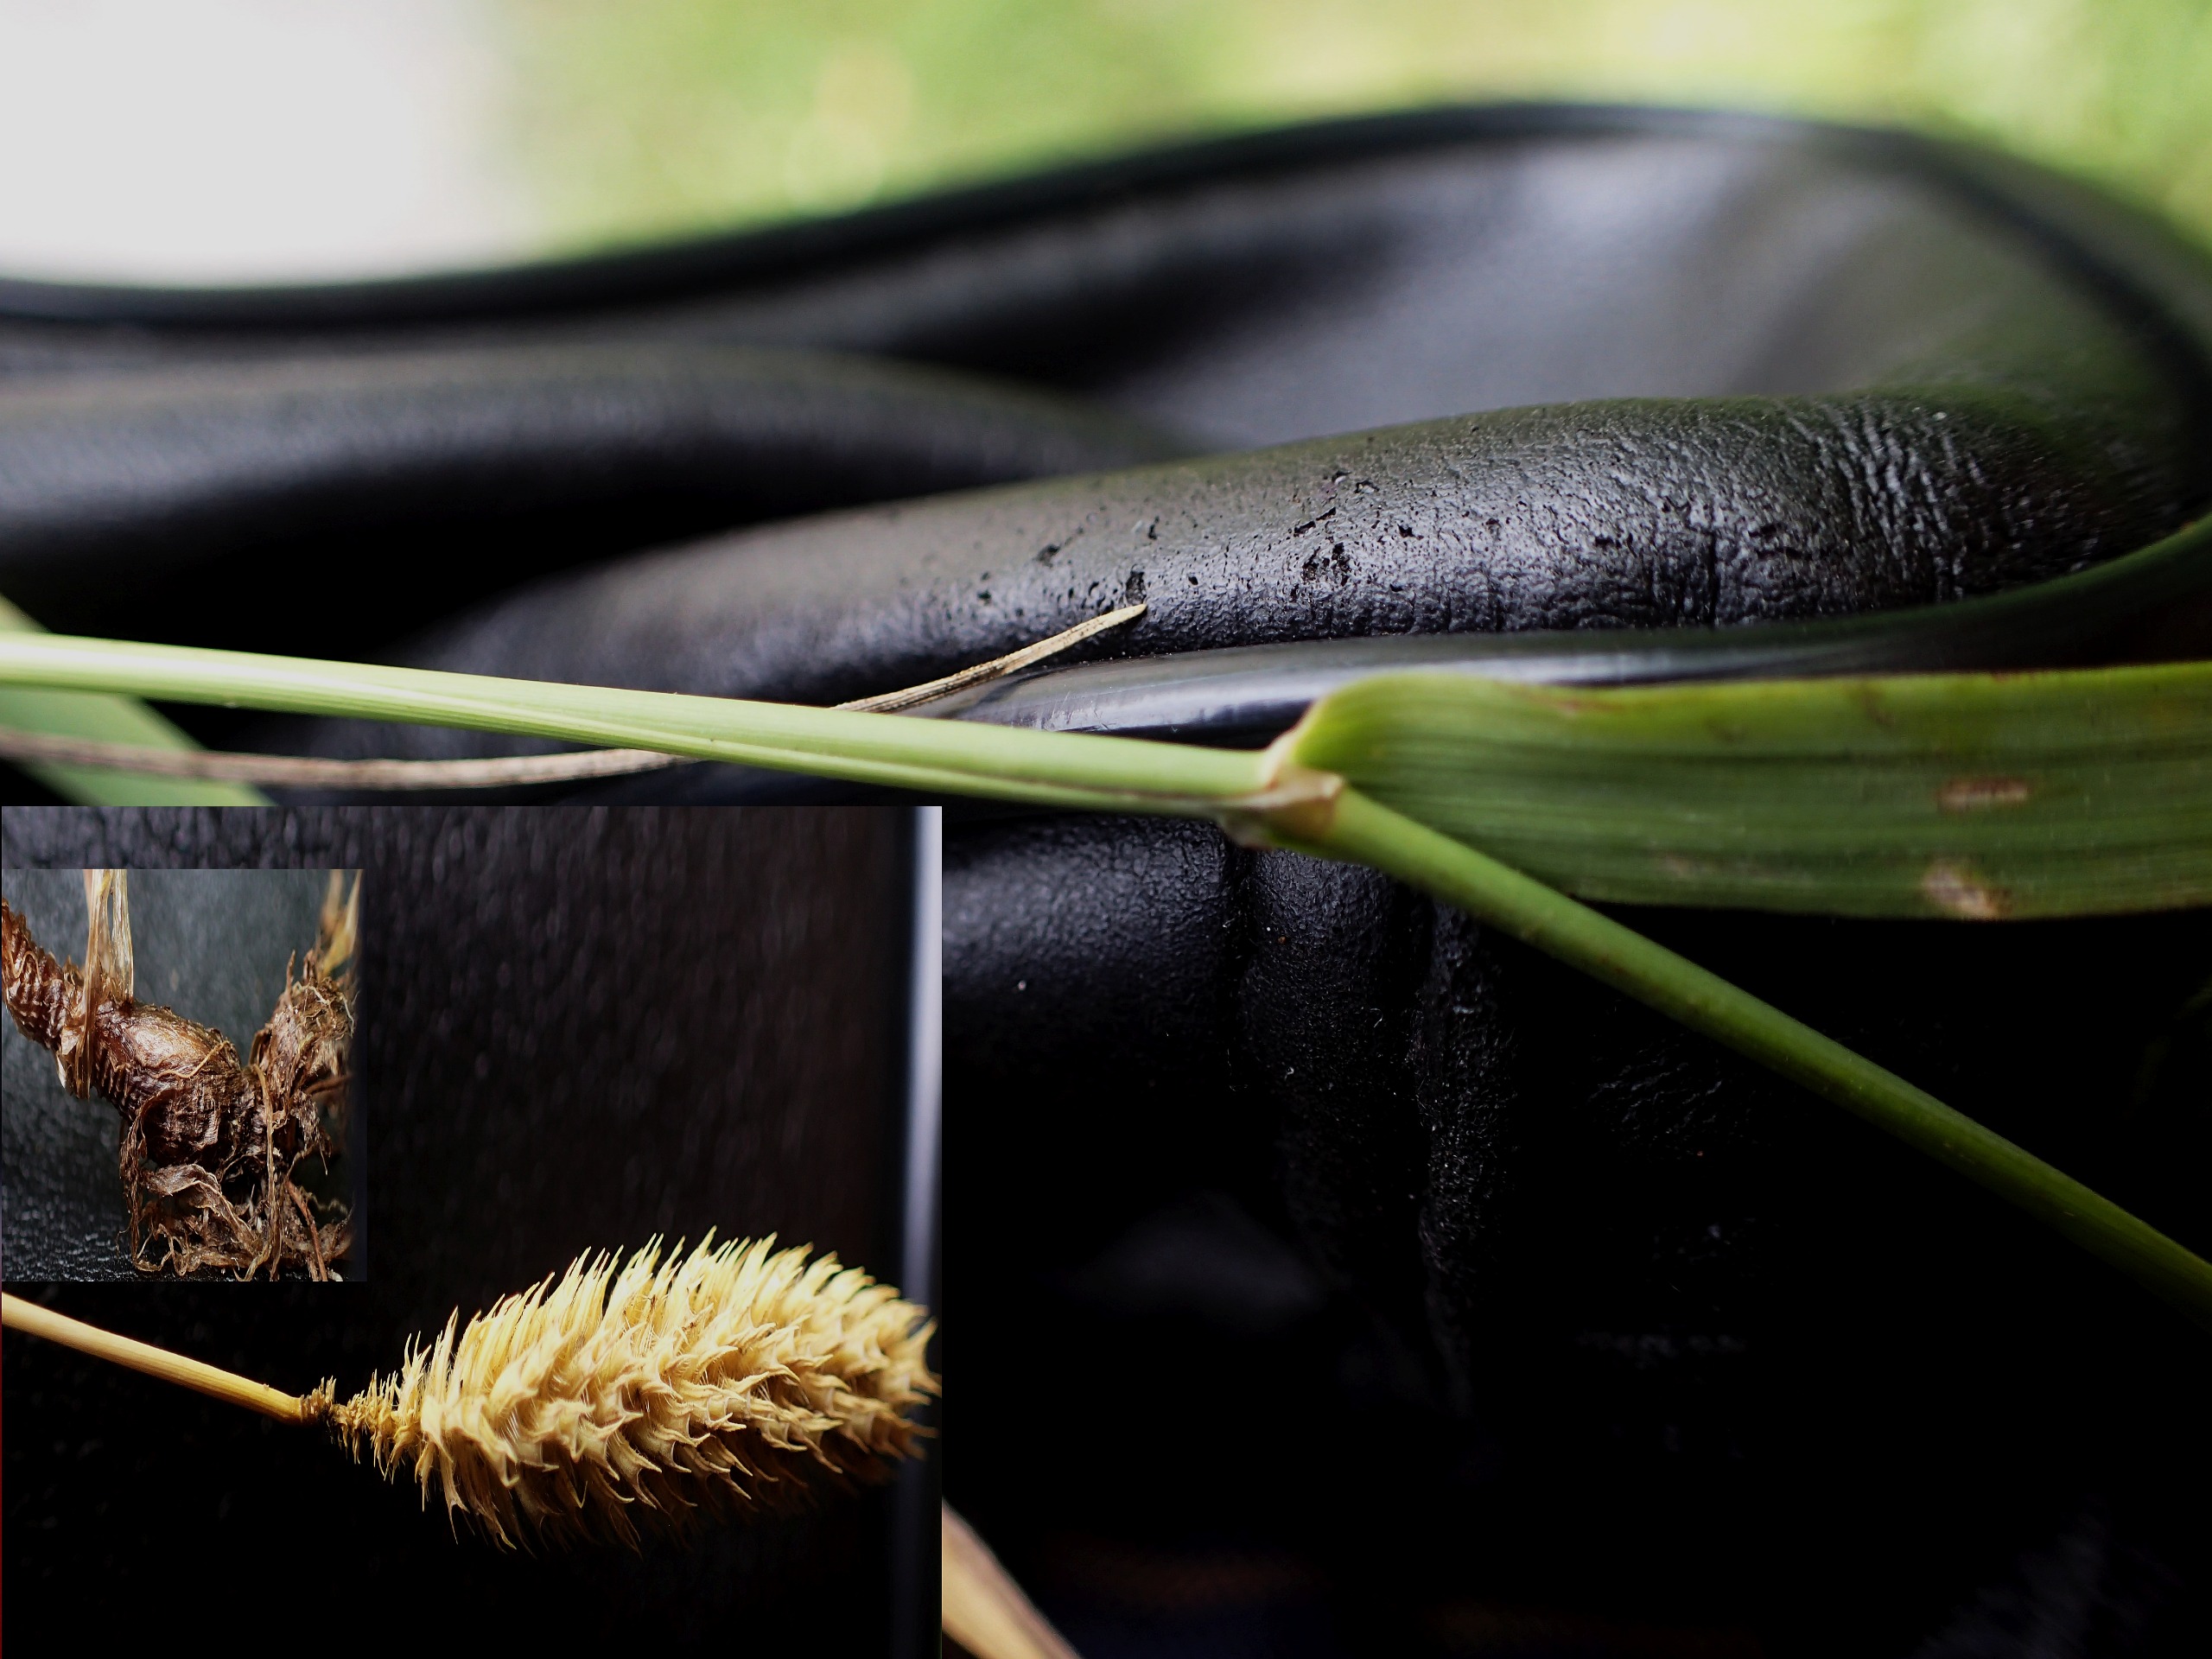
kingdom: Plantae
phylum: Tracheophyta
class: Liliopsida
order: Poales
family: Poaceae
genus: Phleum
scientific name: Phleum pratense
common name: Knold-rottehale
